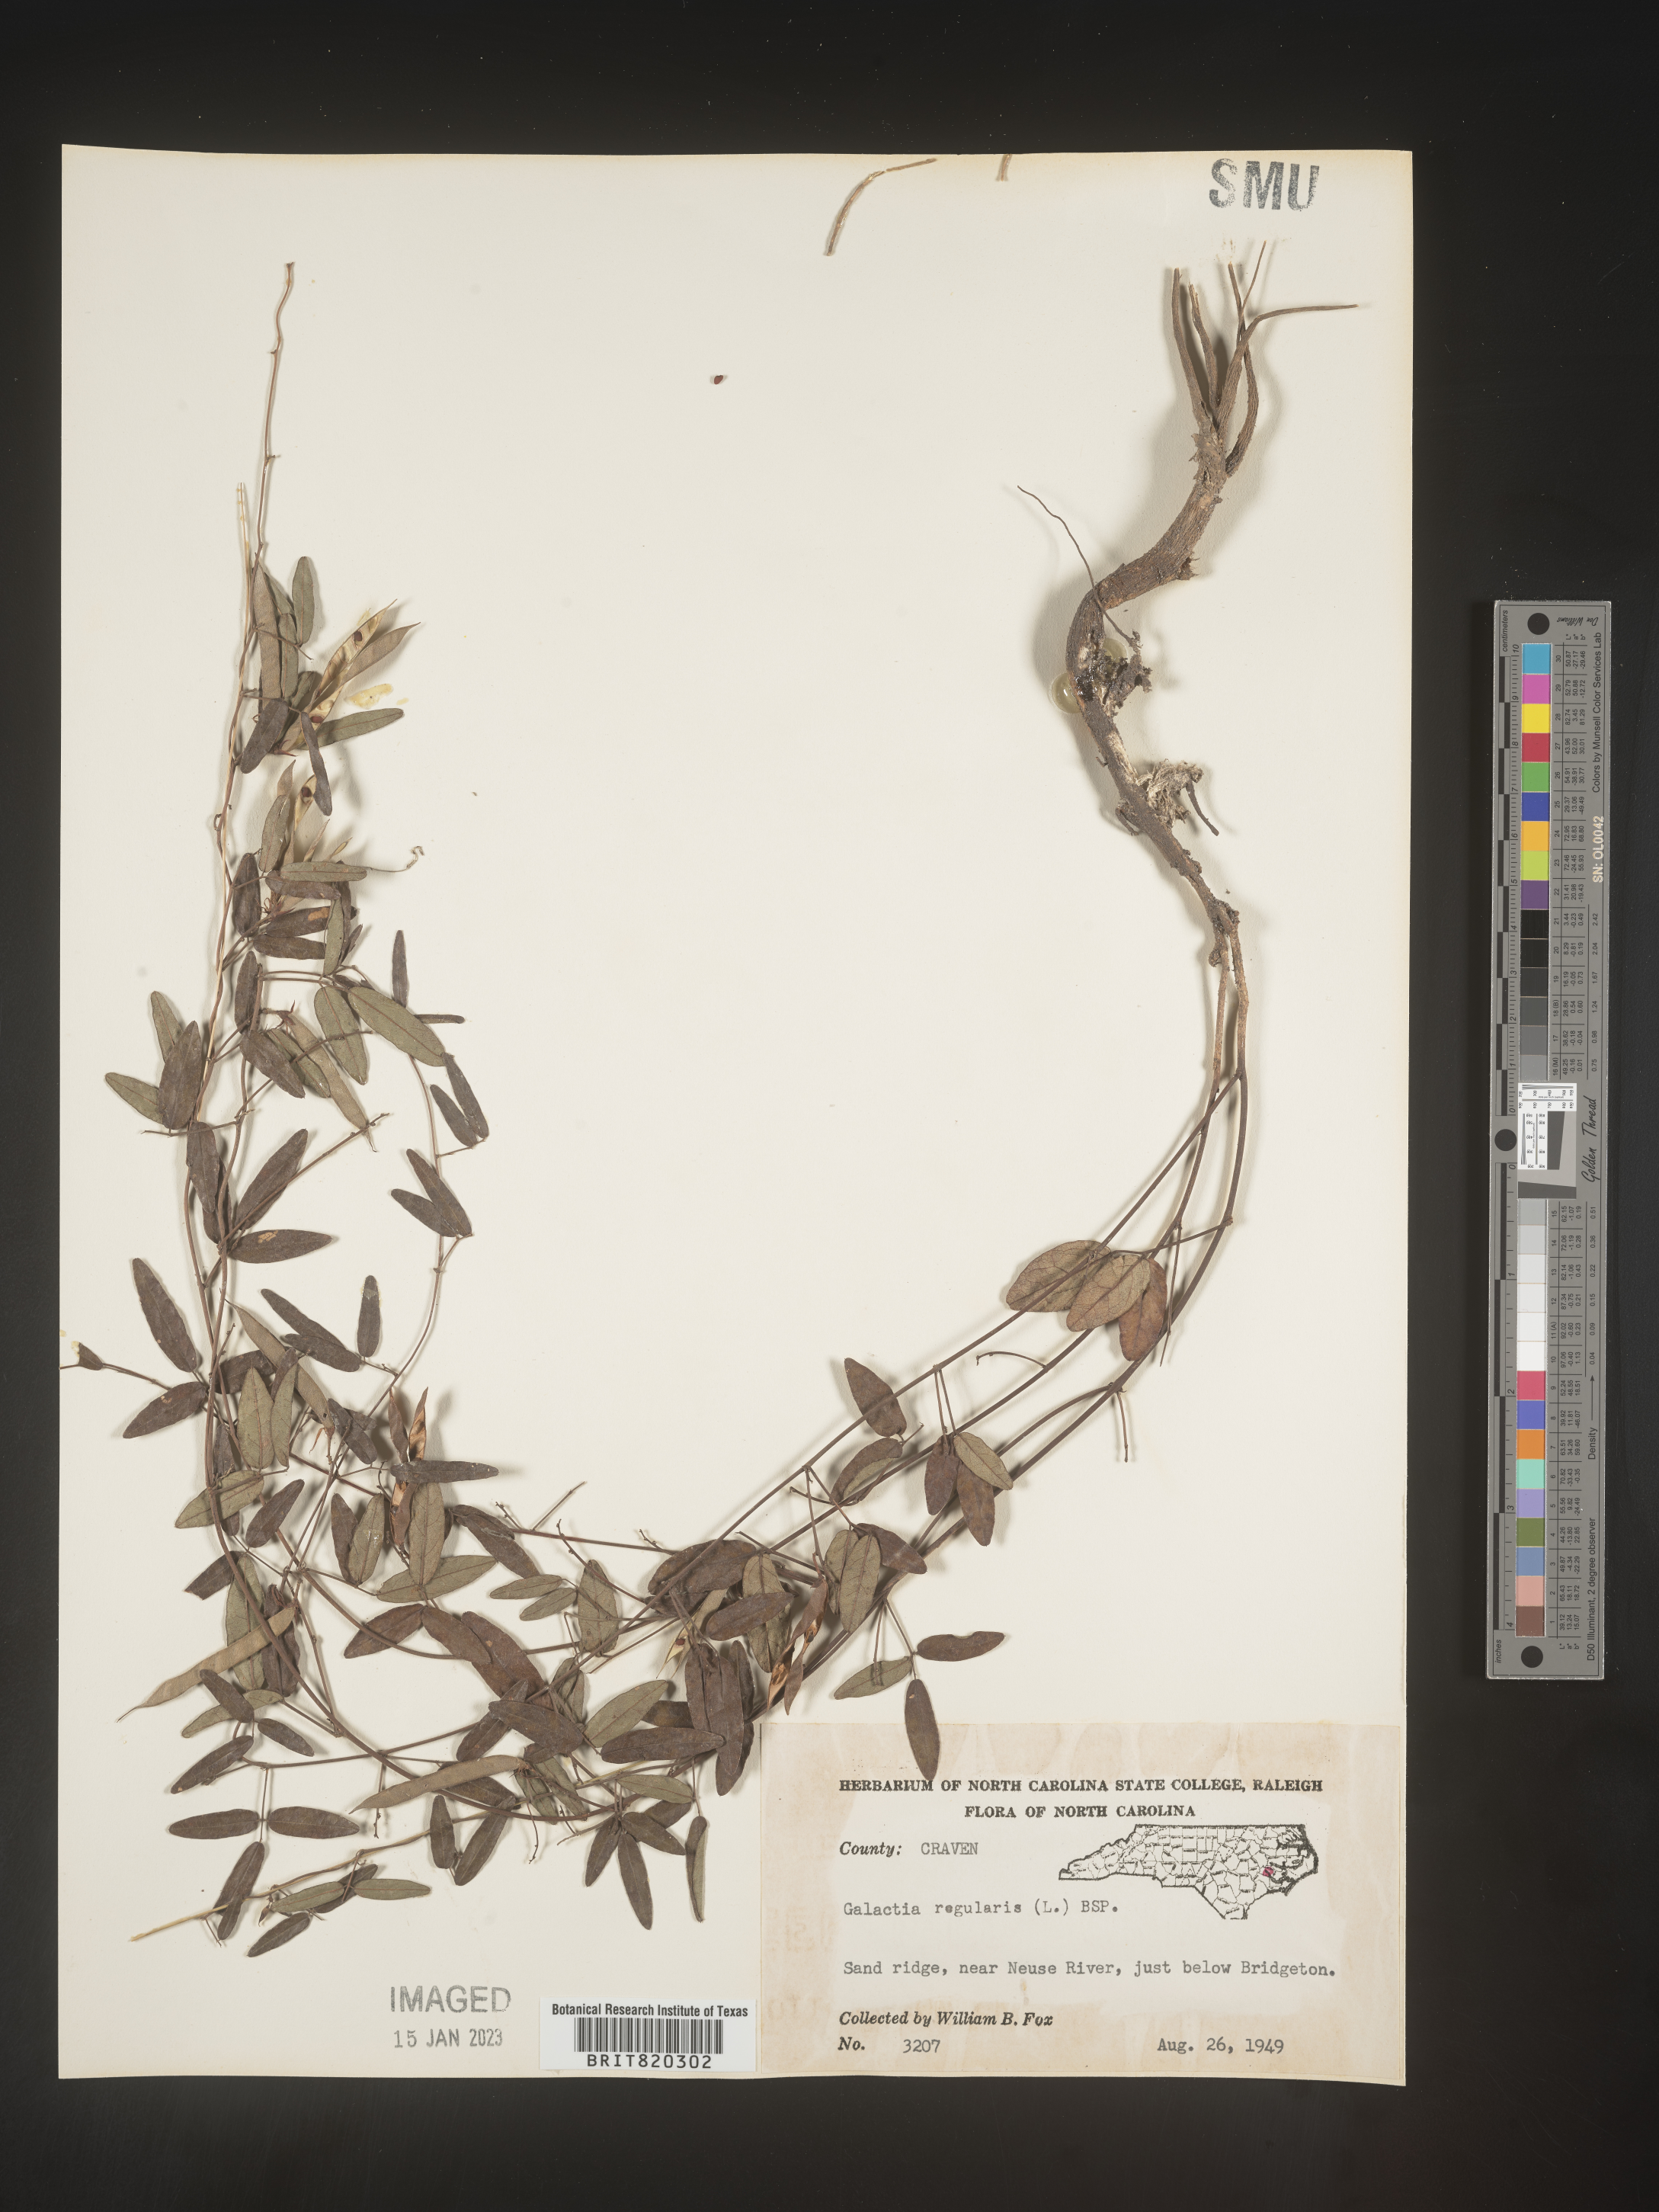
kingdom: Plantae
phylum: Tracheophyta
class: Magnoliopsida
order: Fabales
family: Fabaceae
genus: Galactia
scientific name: Galactia regularis
